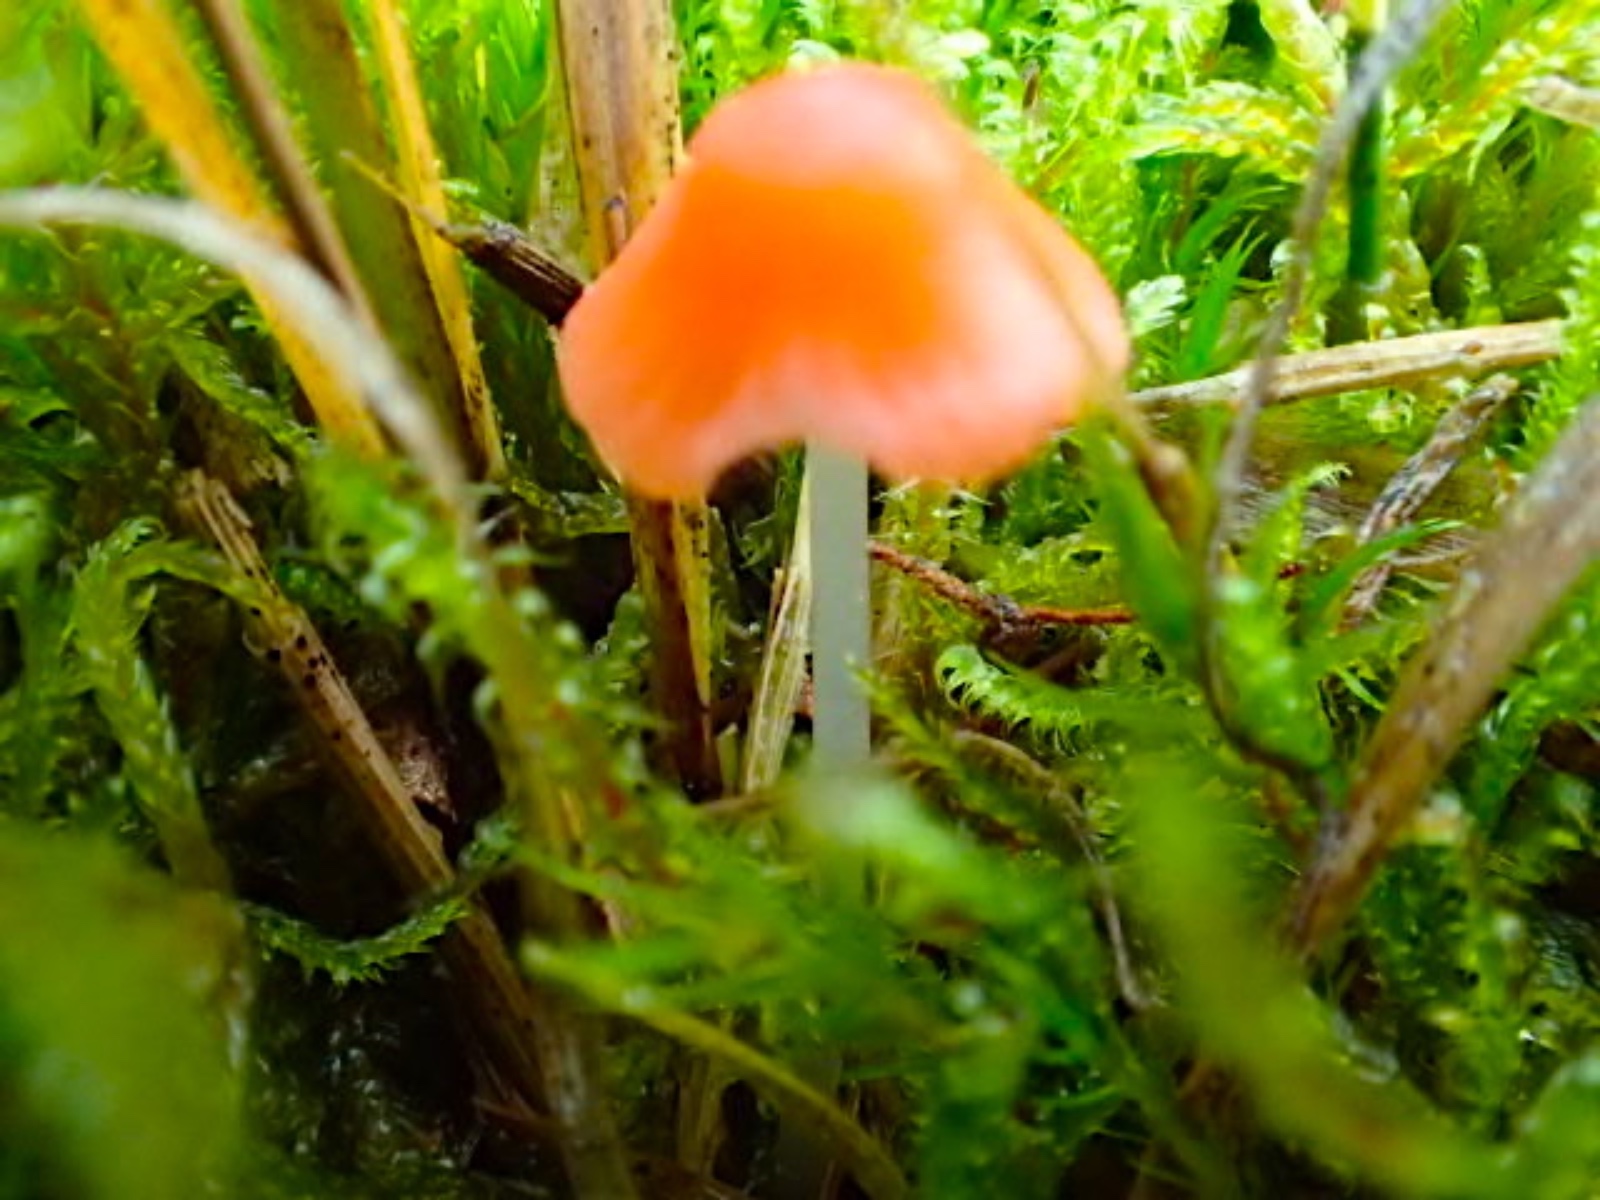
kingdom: Fungi
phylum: Basidiomycota
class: Agaricomycetes
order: Agaricales
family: Mycenaceae
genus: Atheniella
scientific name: Atheniella adonis
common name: rønnerød huesvamp
